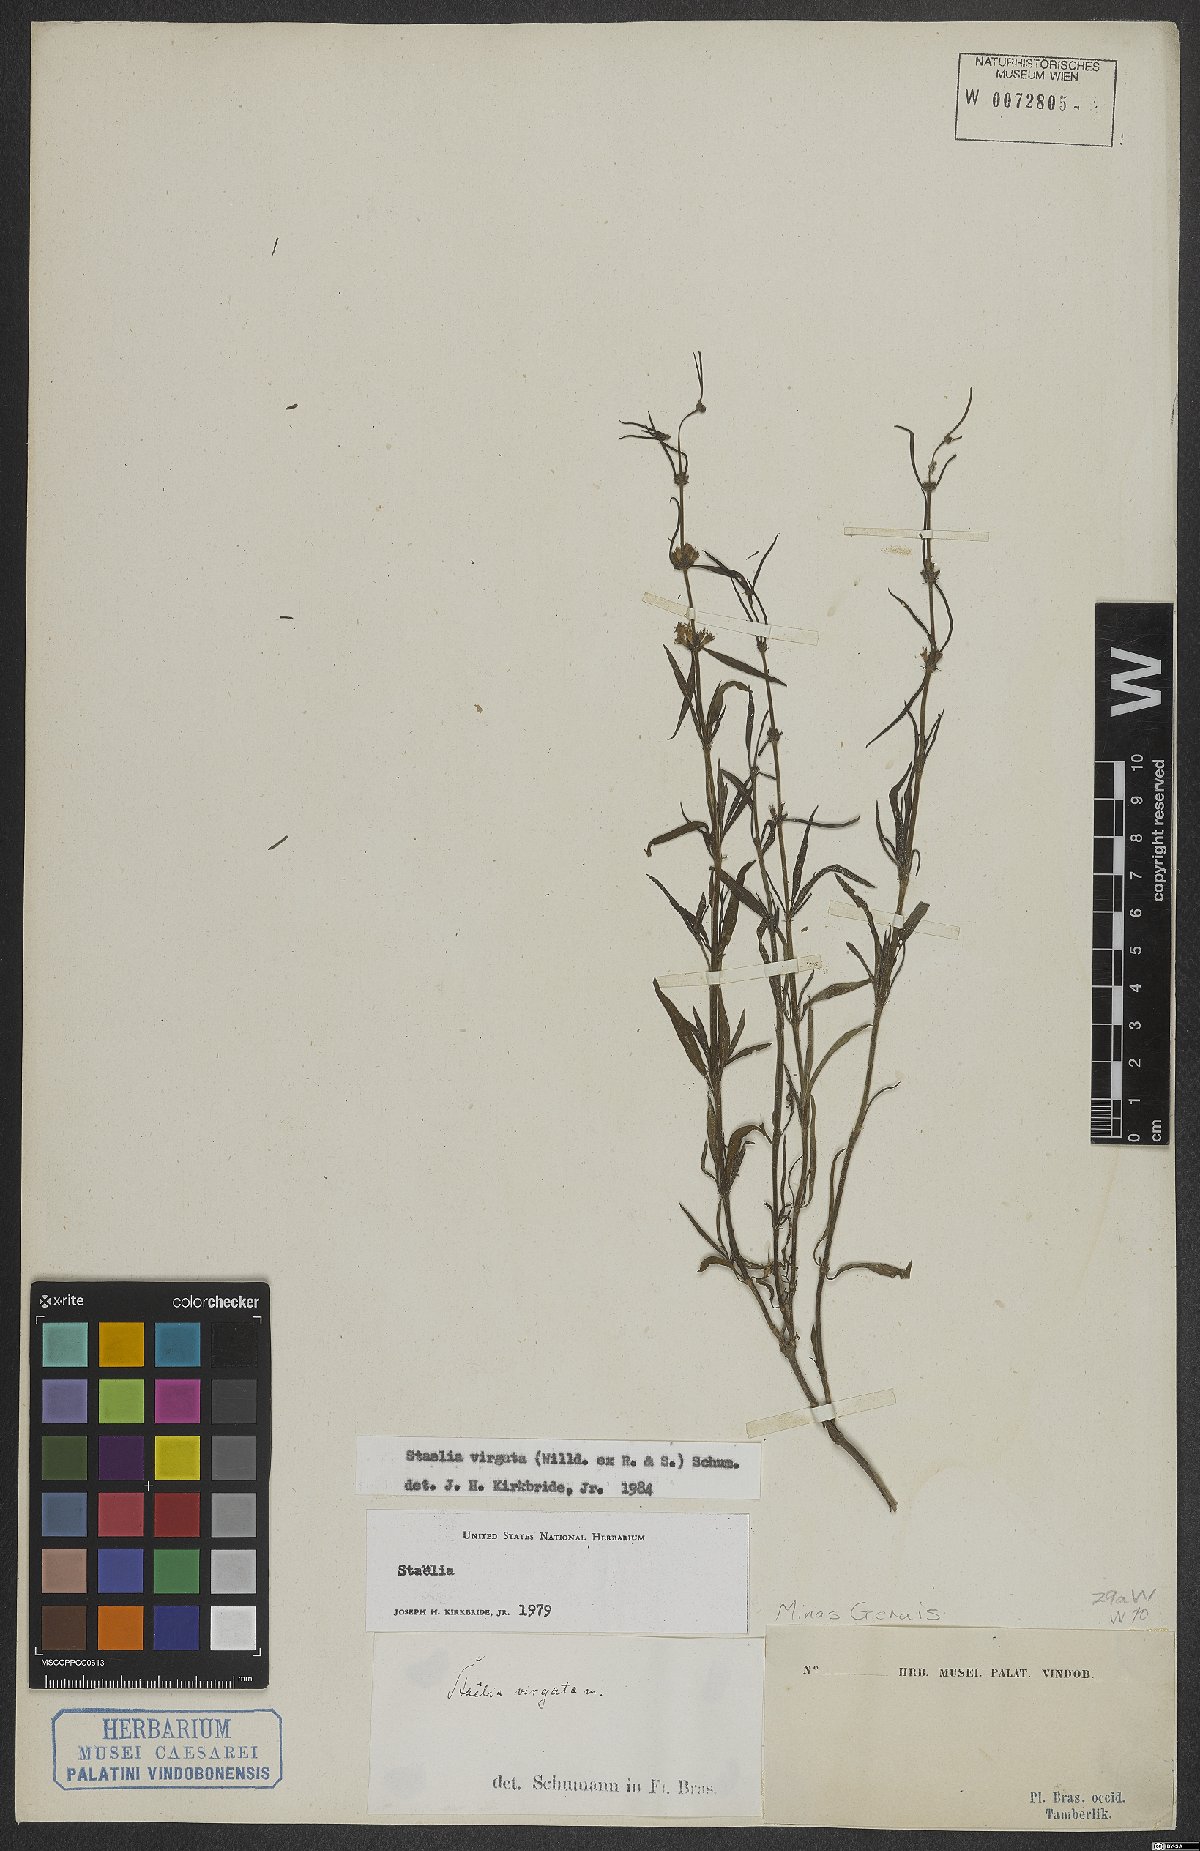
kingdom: Plantae
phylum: Tracheophyta
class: Magnoliopsida
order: Gentianales
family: Rubiaceae
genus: Staelia
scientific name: Staelia virgata
